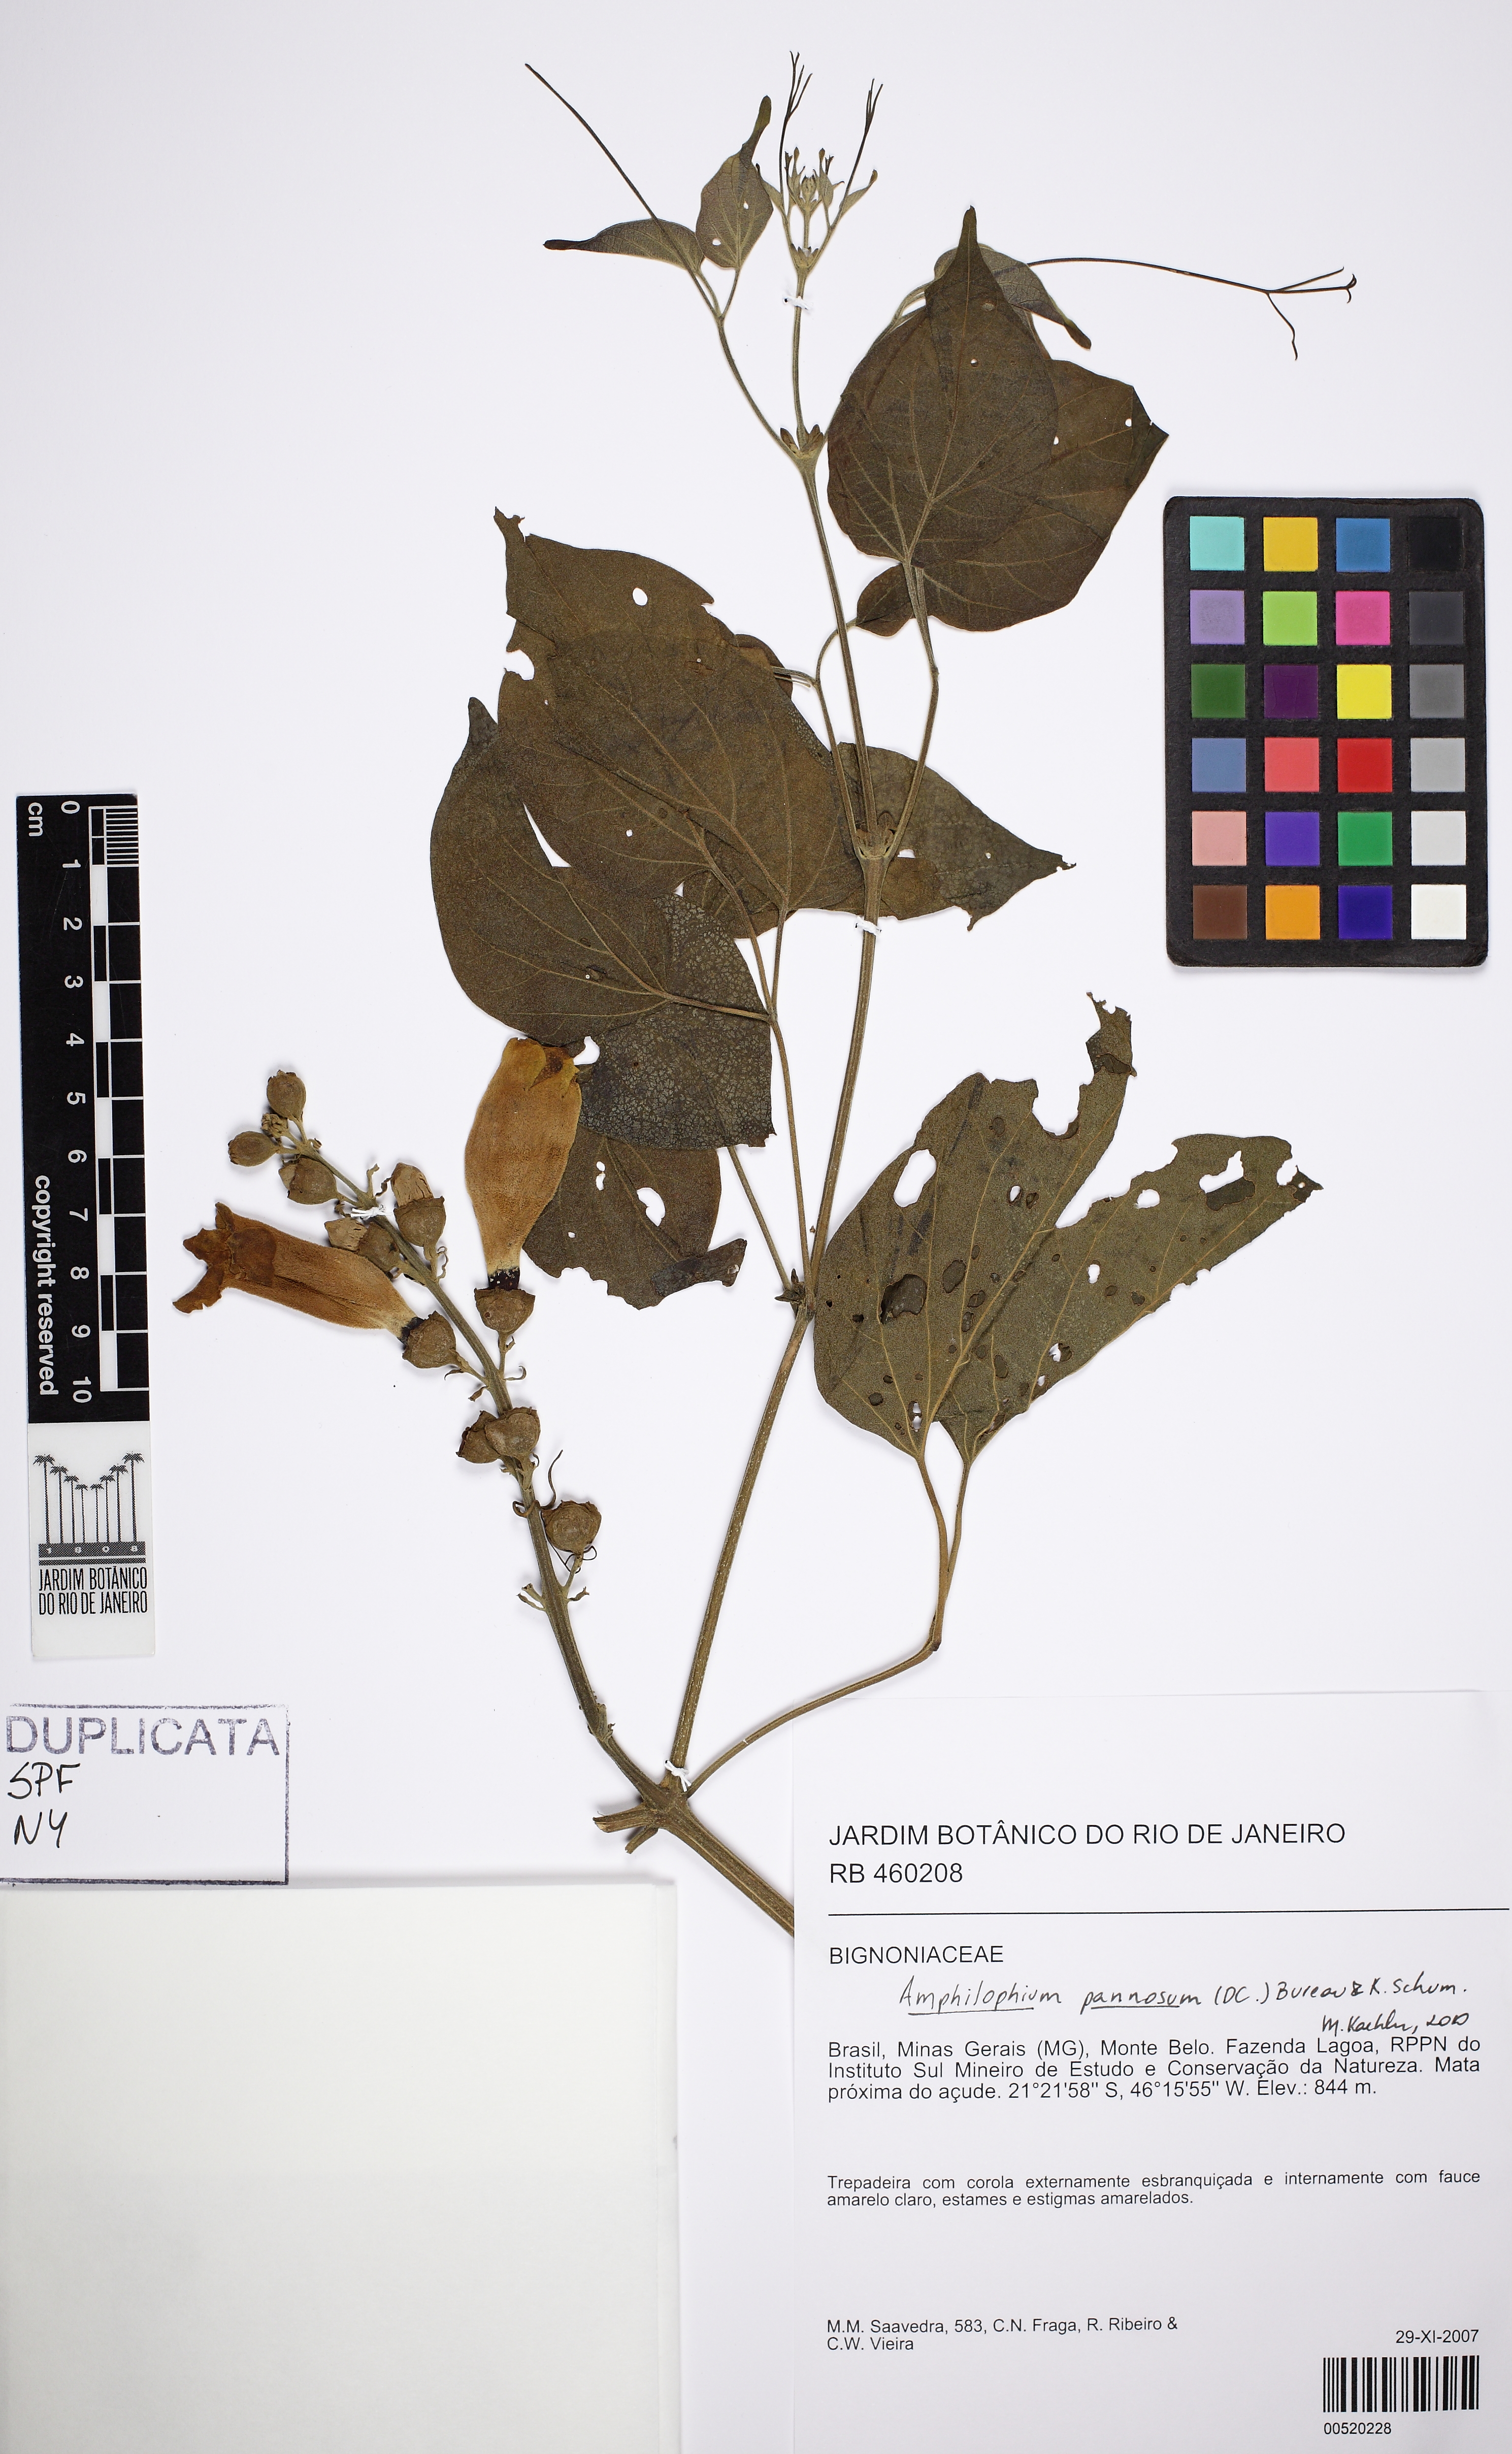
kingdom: Plantae
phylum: Tracheophyta
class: Magnoliopsida
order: Lamiales
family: Bignoniaceae
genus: Amphilophium
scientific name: Amphilophium pannosum
